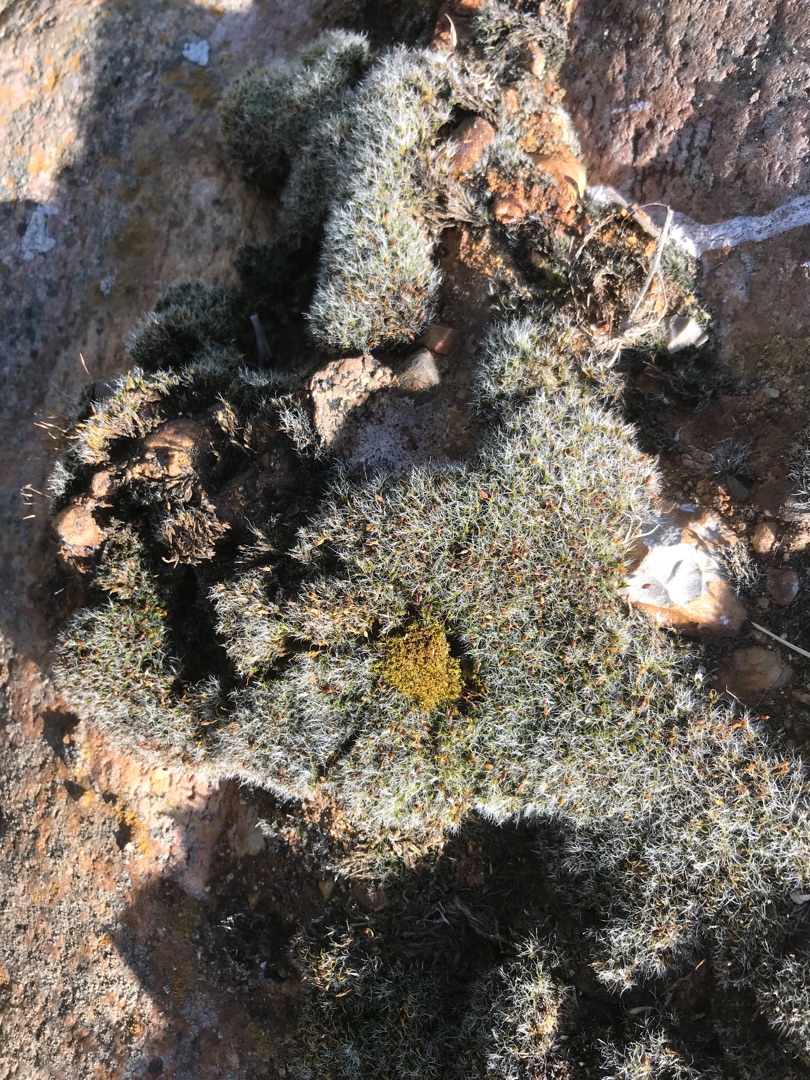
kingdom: Plantae
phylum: Bryophyta
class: Bryopsida
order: Grimmiales
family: Grimmiaceae
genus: Grimmia
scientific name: Grimmia pulvinata
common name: Pude-gråmos
